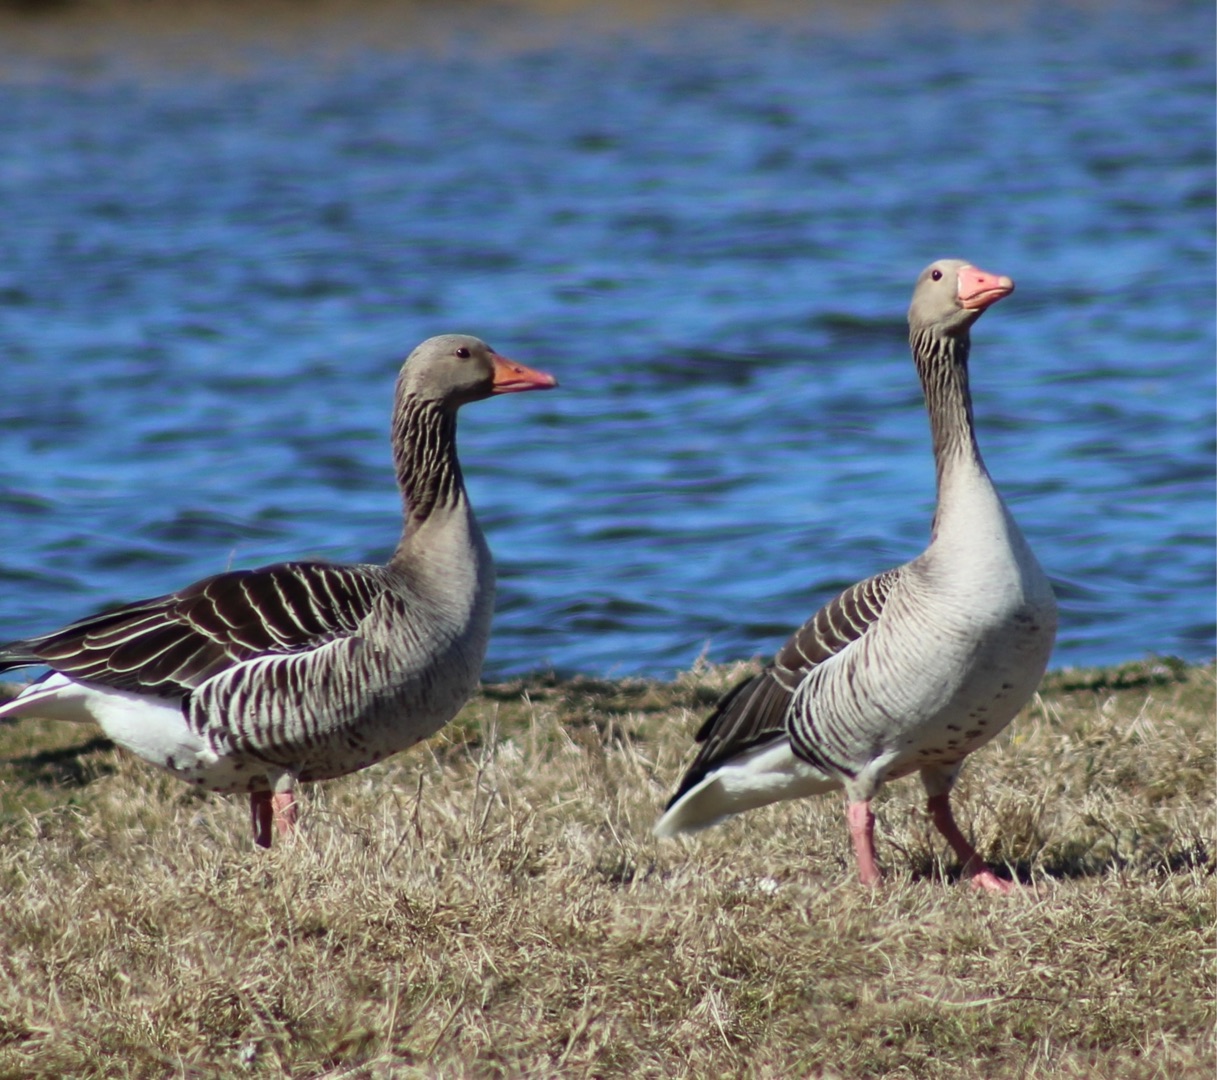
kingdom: Animalia
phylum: Chordata
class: Aves
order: Anseriformes
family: Anatidae
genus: Anser
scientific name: Anser anser
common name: Grågås
